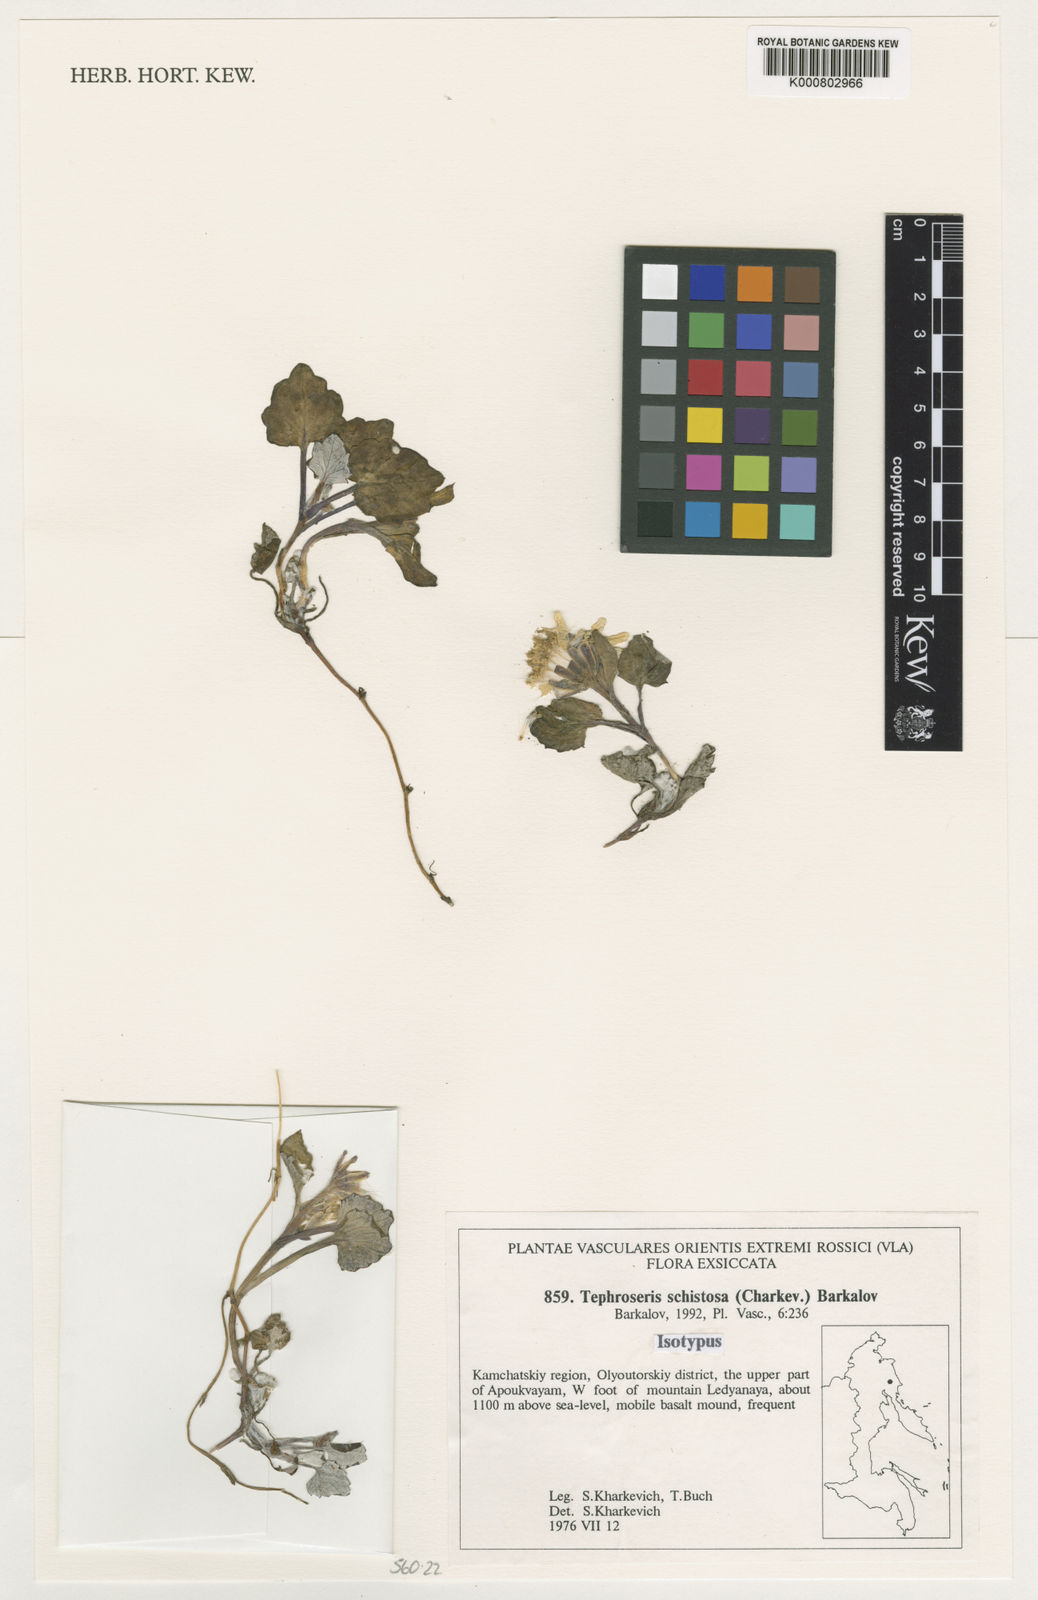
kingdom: Plantae
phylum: Tracheophyta
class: Magnoliopsida
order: Asterales
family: Asteraceae
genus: Tephroseris
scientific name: Tephroseris schistosa
